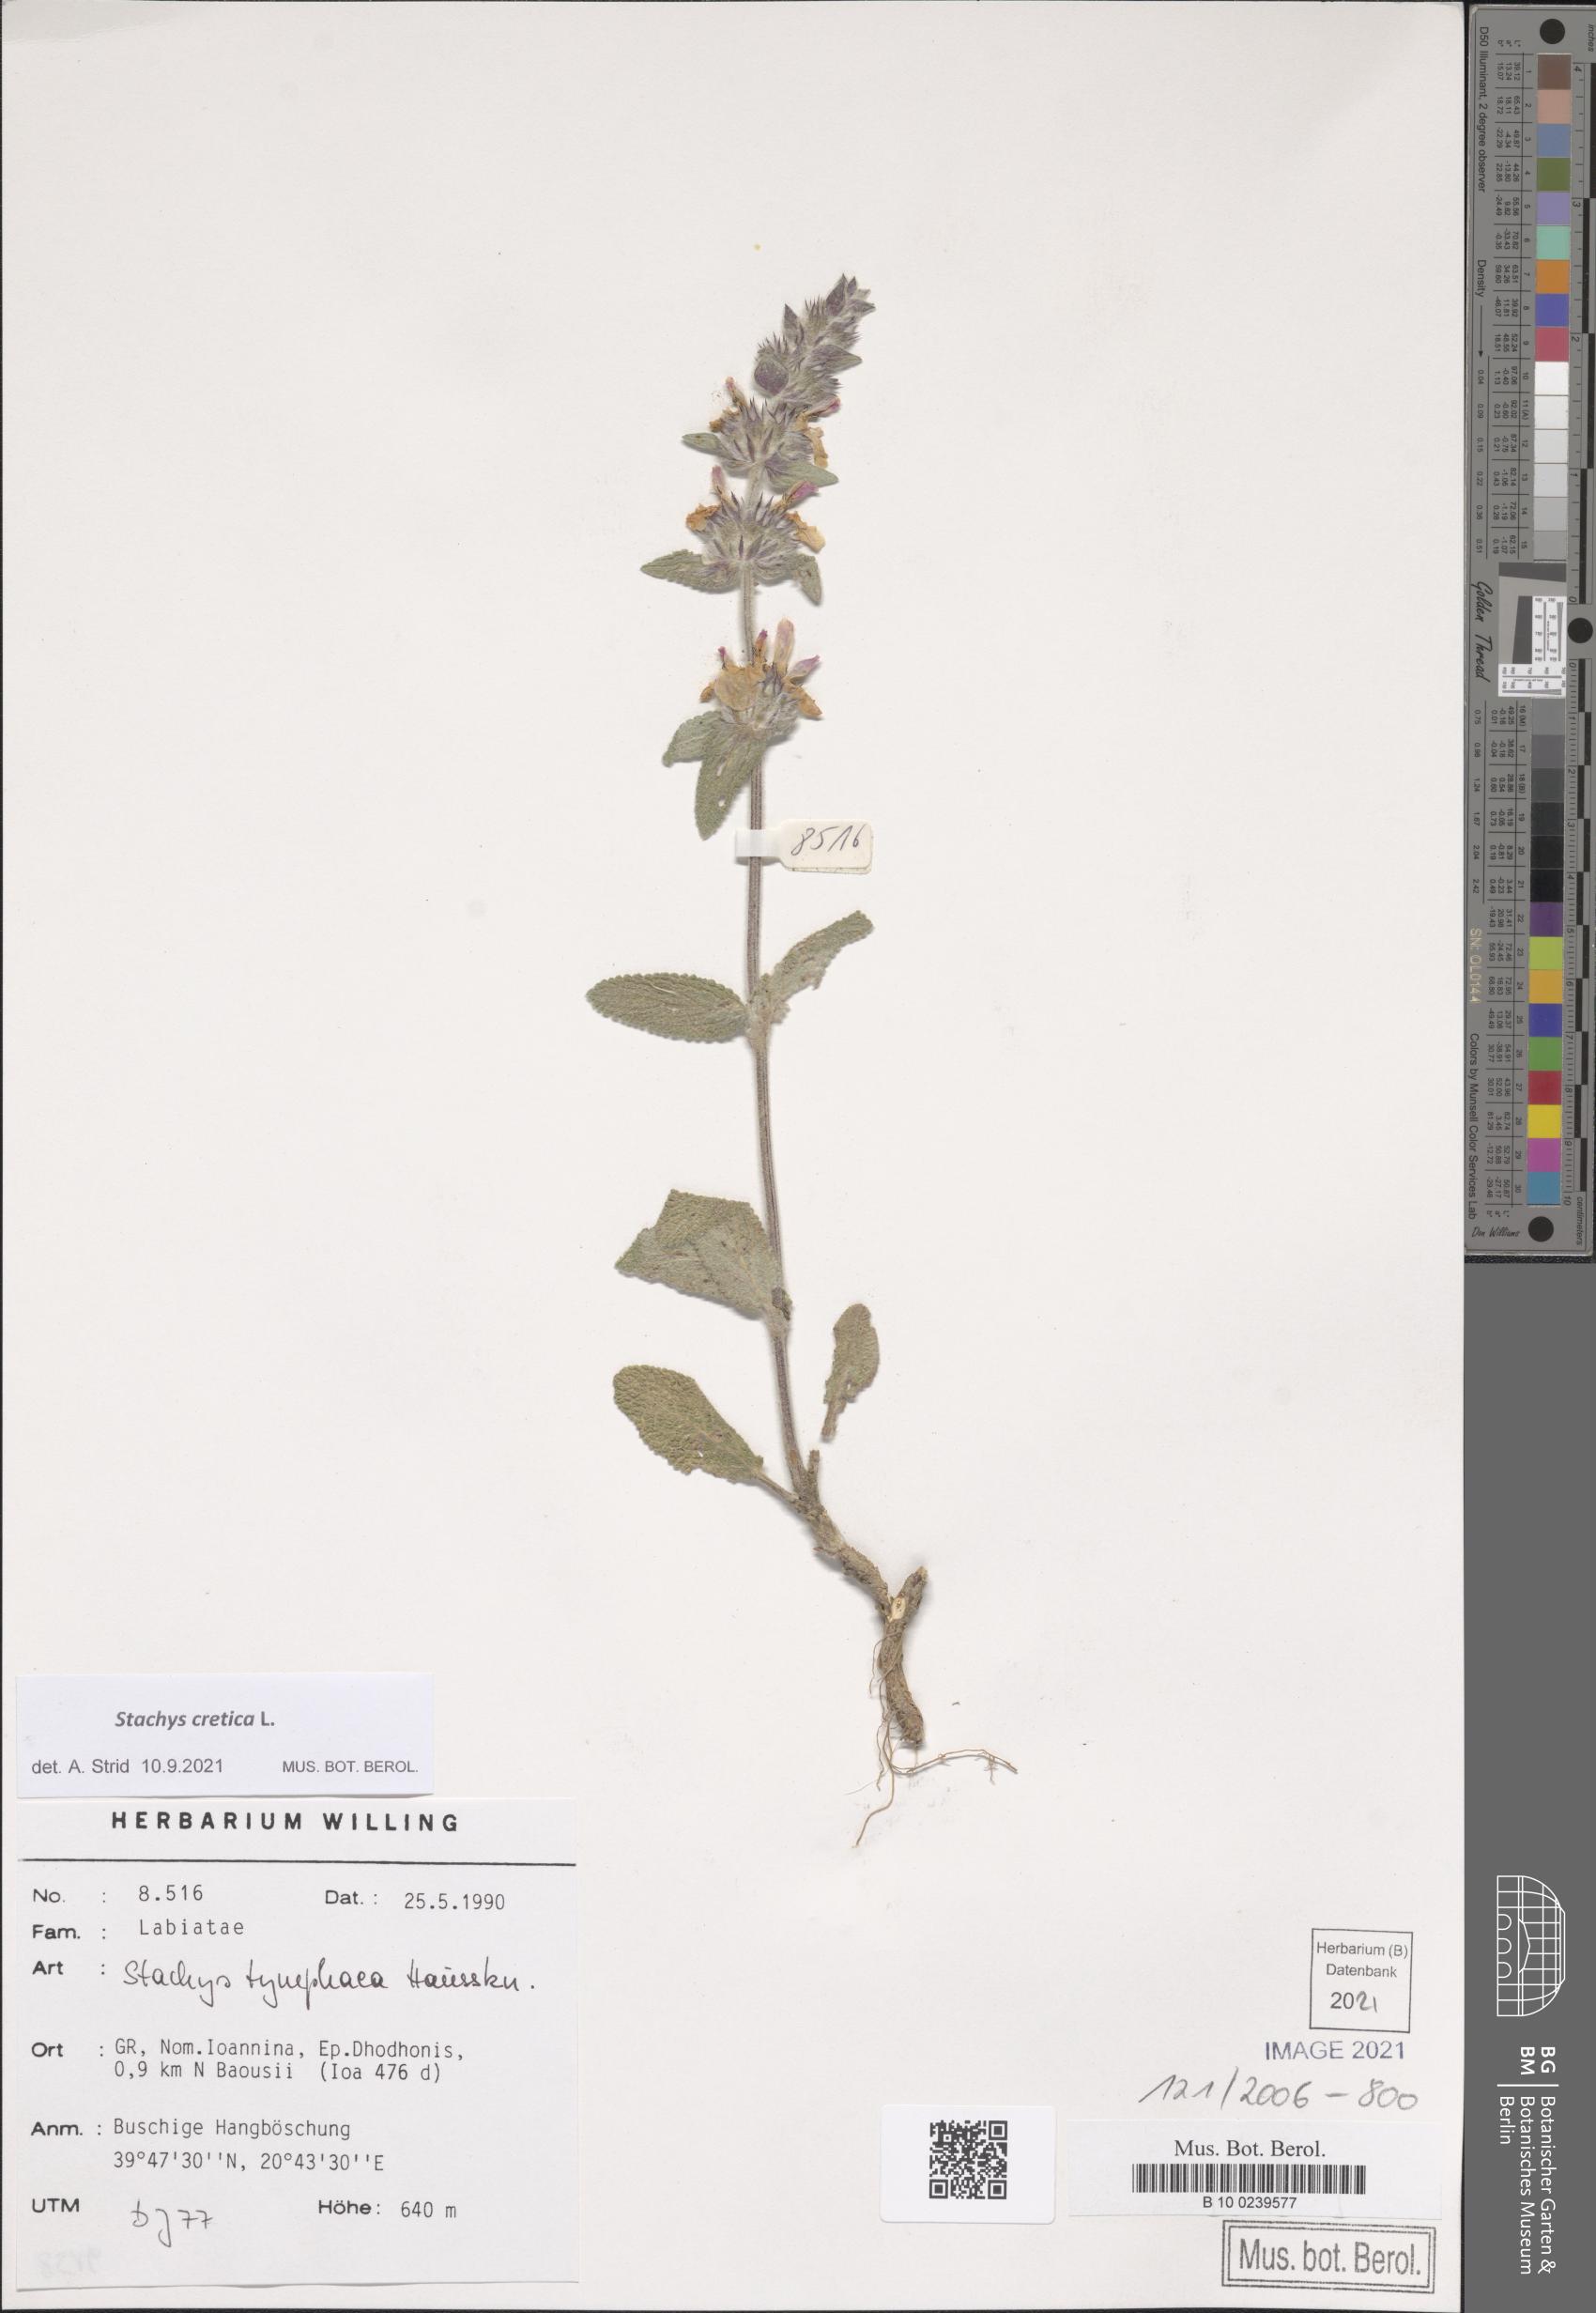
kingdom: Plantae
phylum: Tracheophyta
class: Magnoliopsida
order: Lamiales
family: Lamiaceae
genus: Stachys
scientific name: Stachys cretica
